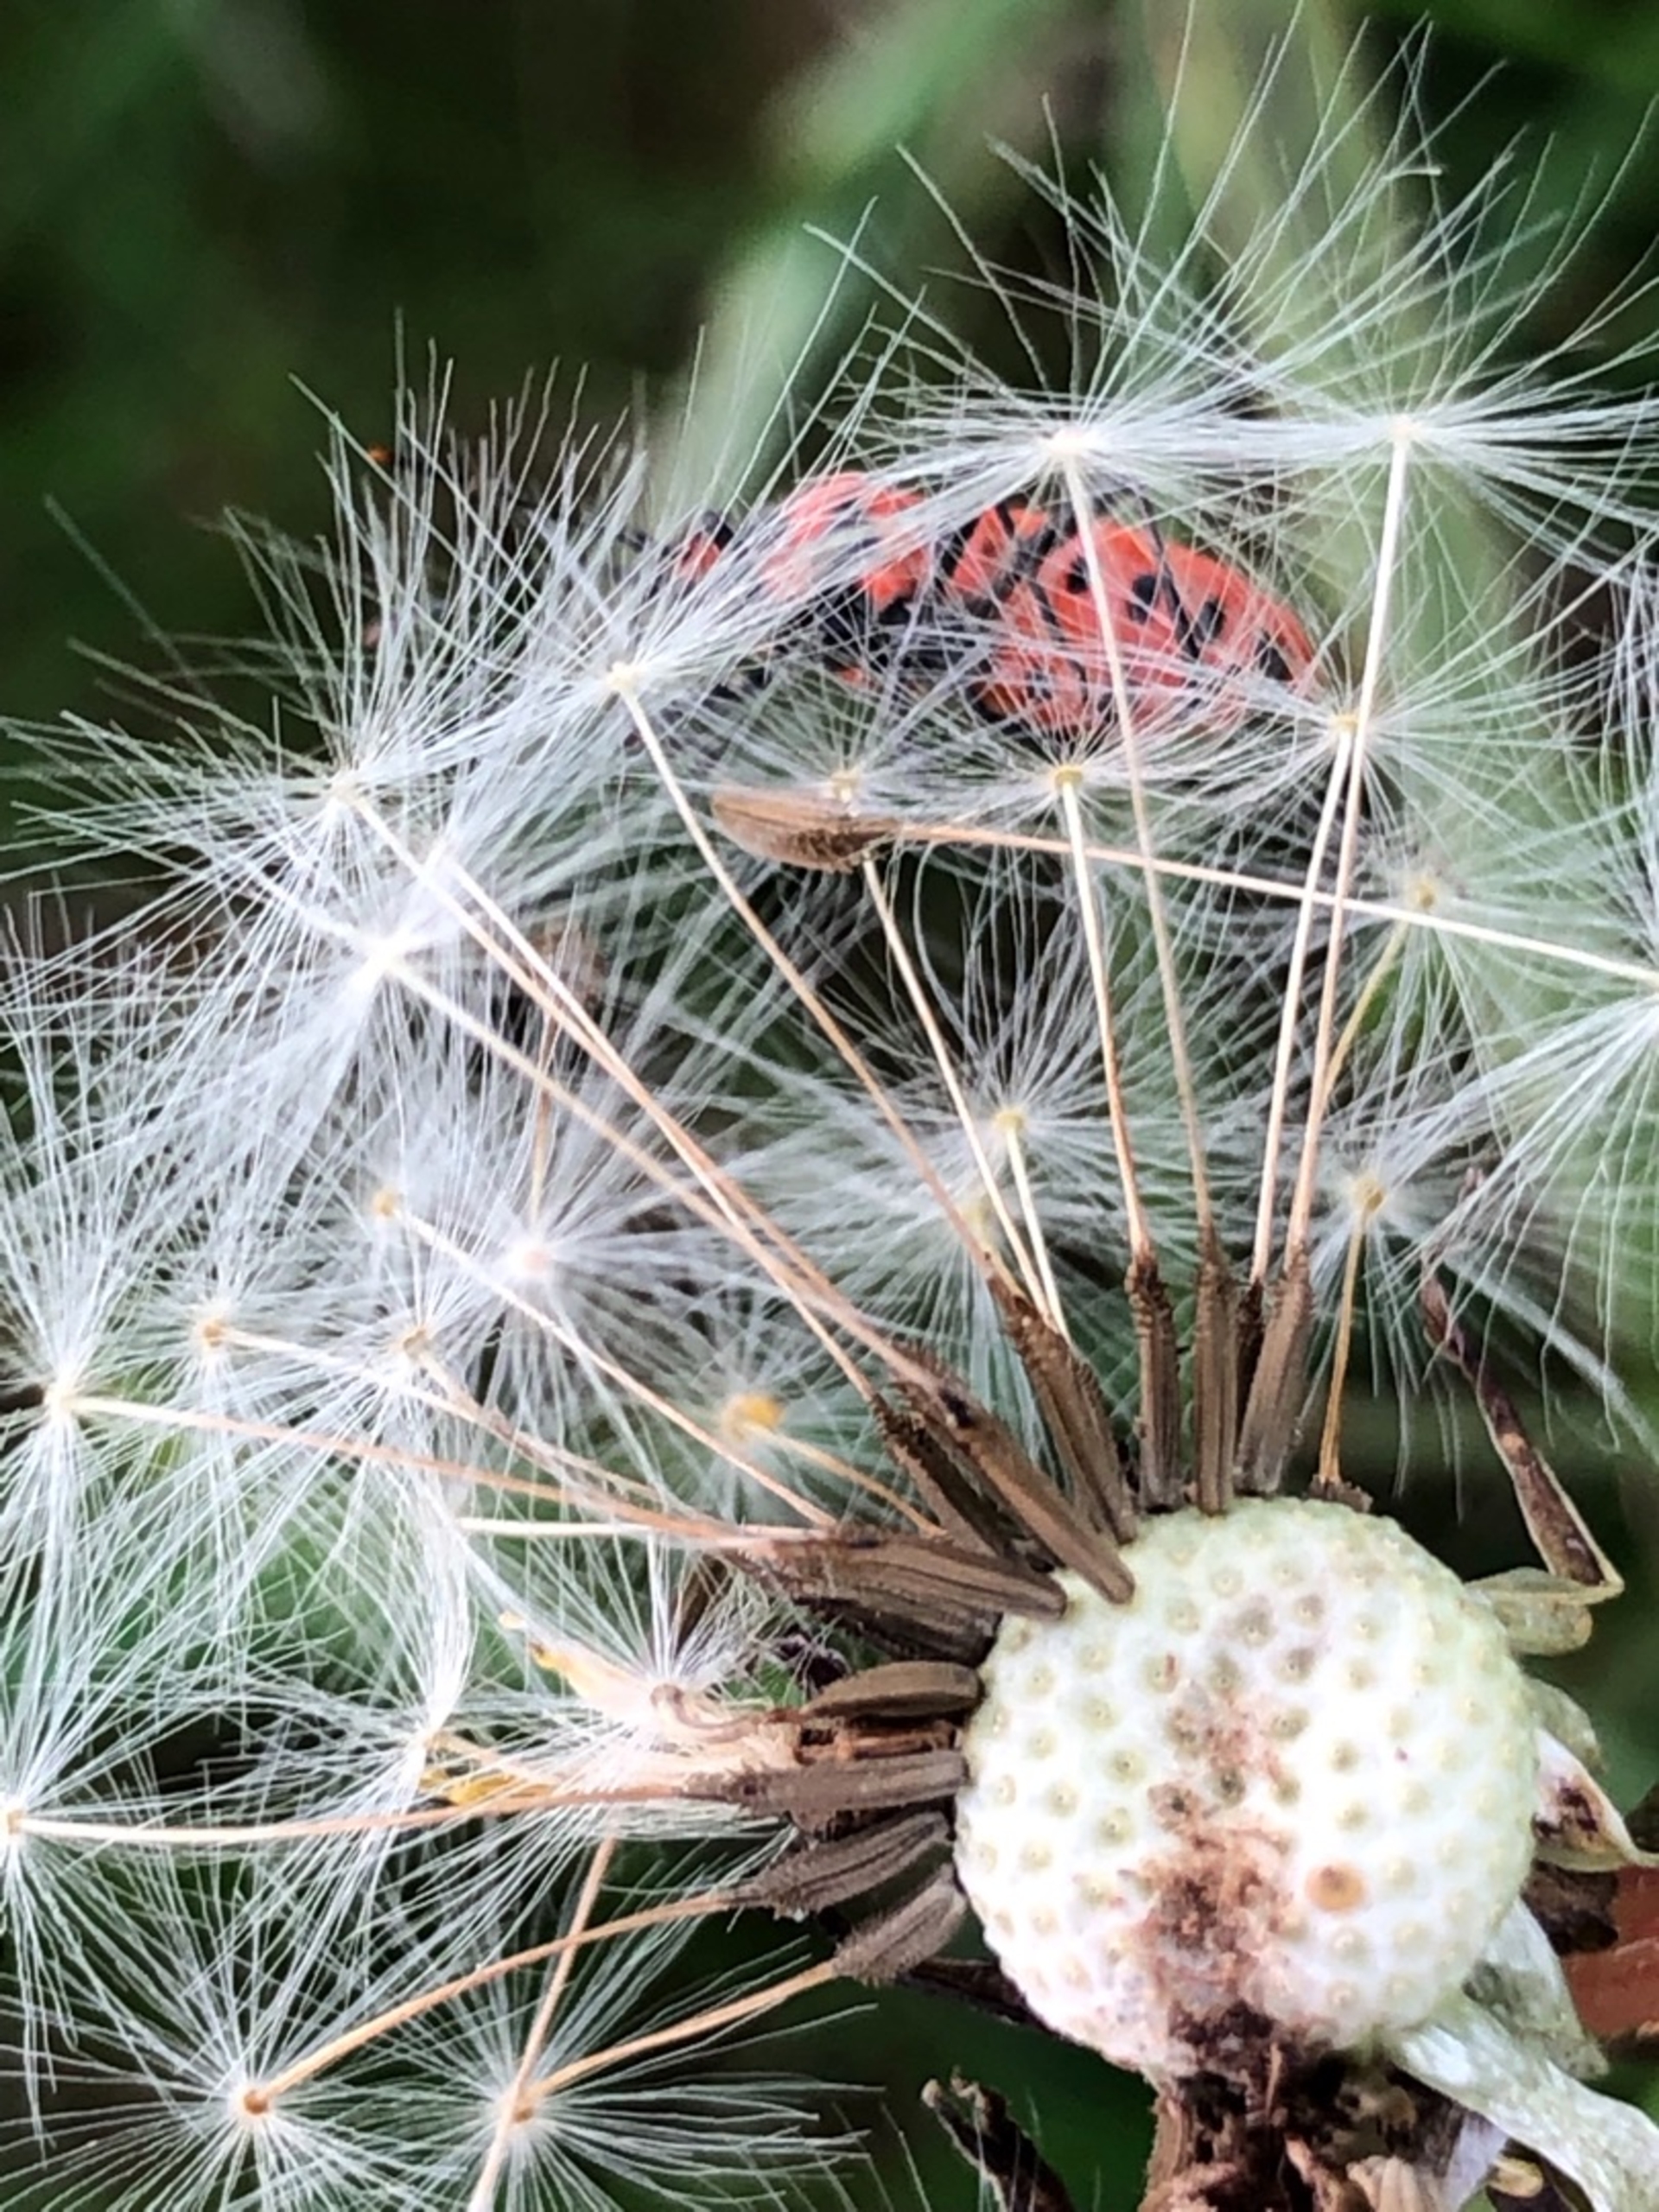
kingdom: Animalia
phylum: Arthropoda
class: Insecta
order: Hemiptera
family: Rhopalidae
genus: Corizus
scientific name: Corizus hyoscyami
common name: Rød kanttæge
